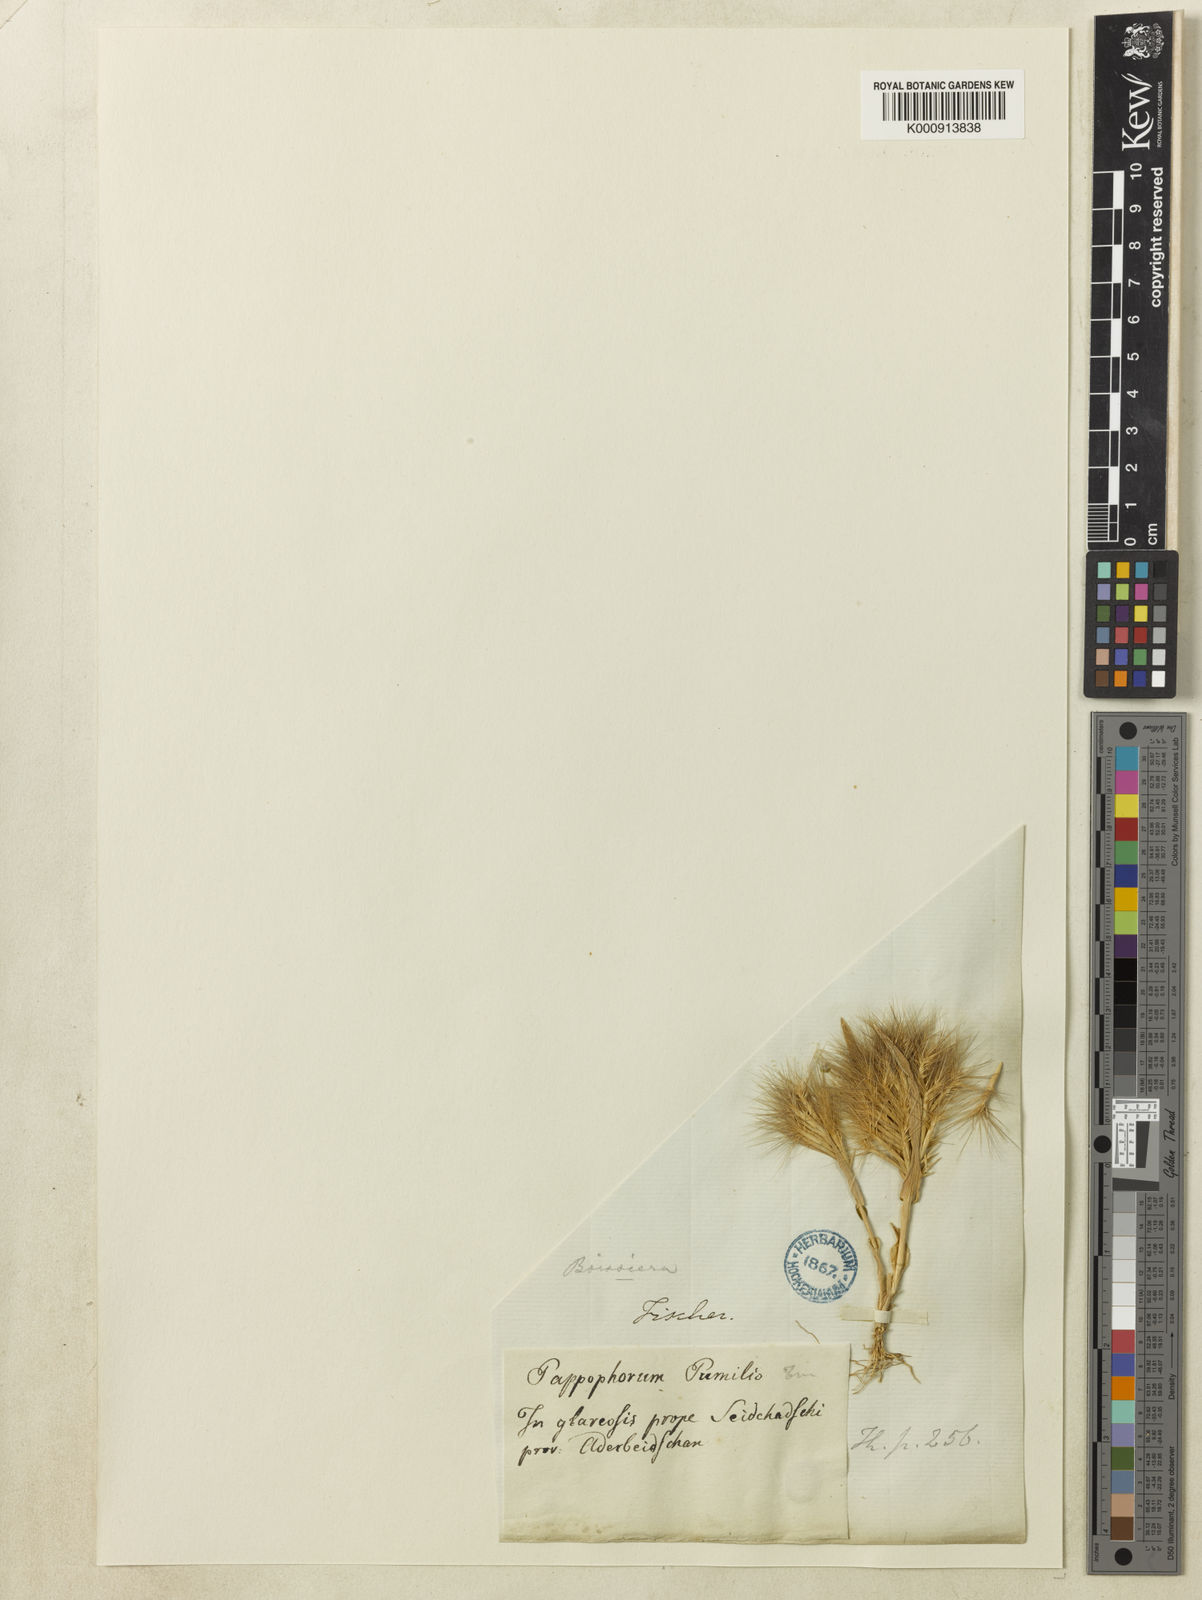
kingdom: Plantae
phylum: Tracheophyta
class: Liliopsida
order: Poales
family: Poaceae
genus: Bromus
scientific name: Bromus pumilio
